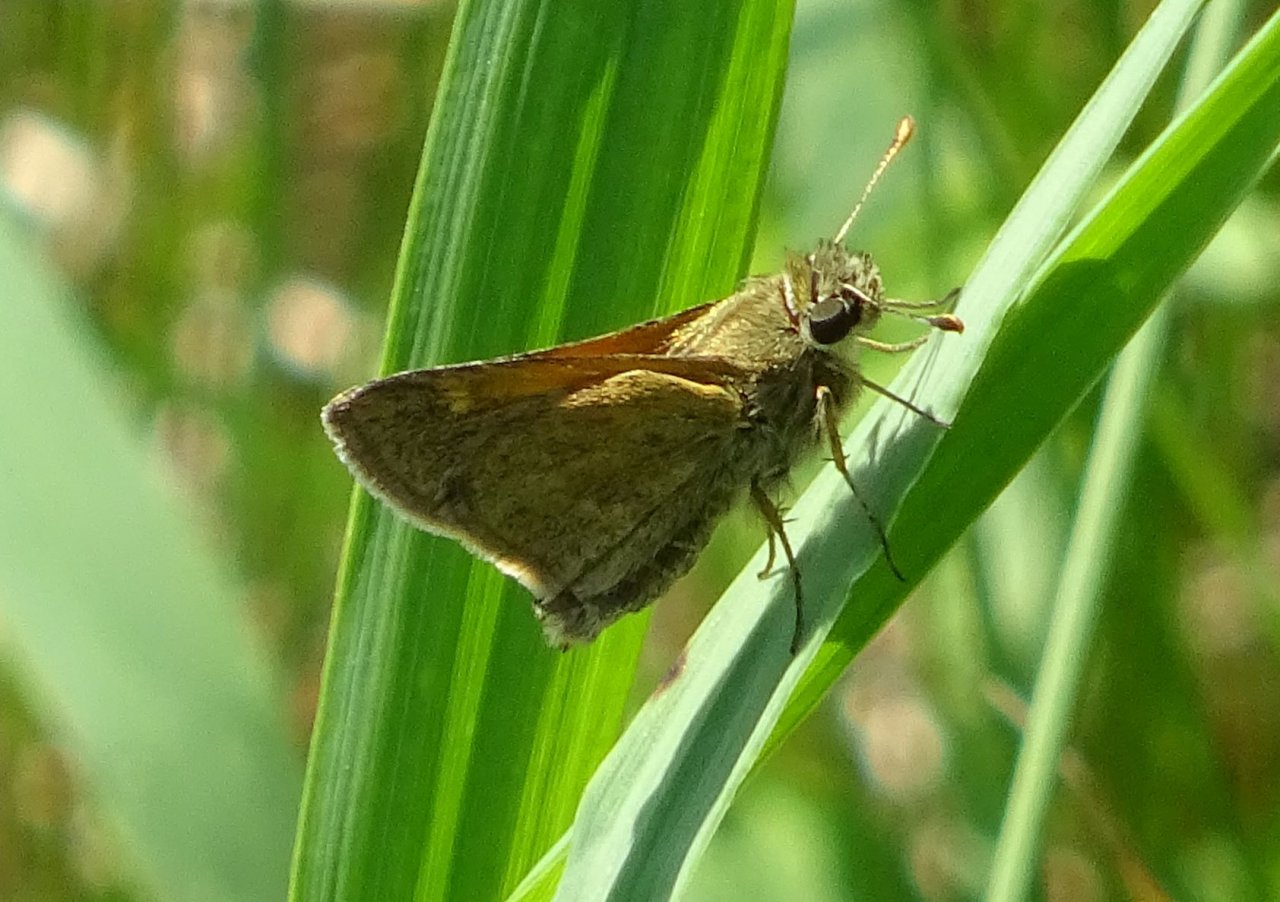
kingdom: Animalia
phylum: Arthropoda
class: Insecta
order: Lepidoptera
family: Hesperiidae
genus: Polites
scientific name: Polites themistocles
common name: Tawny-edged Skipper
